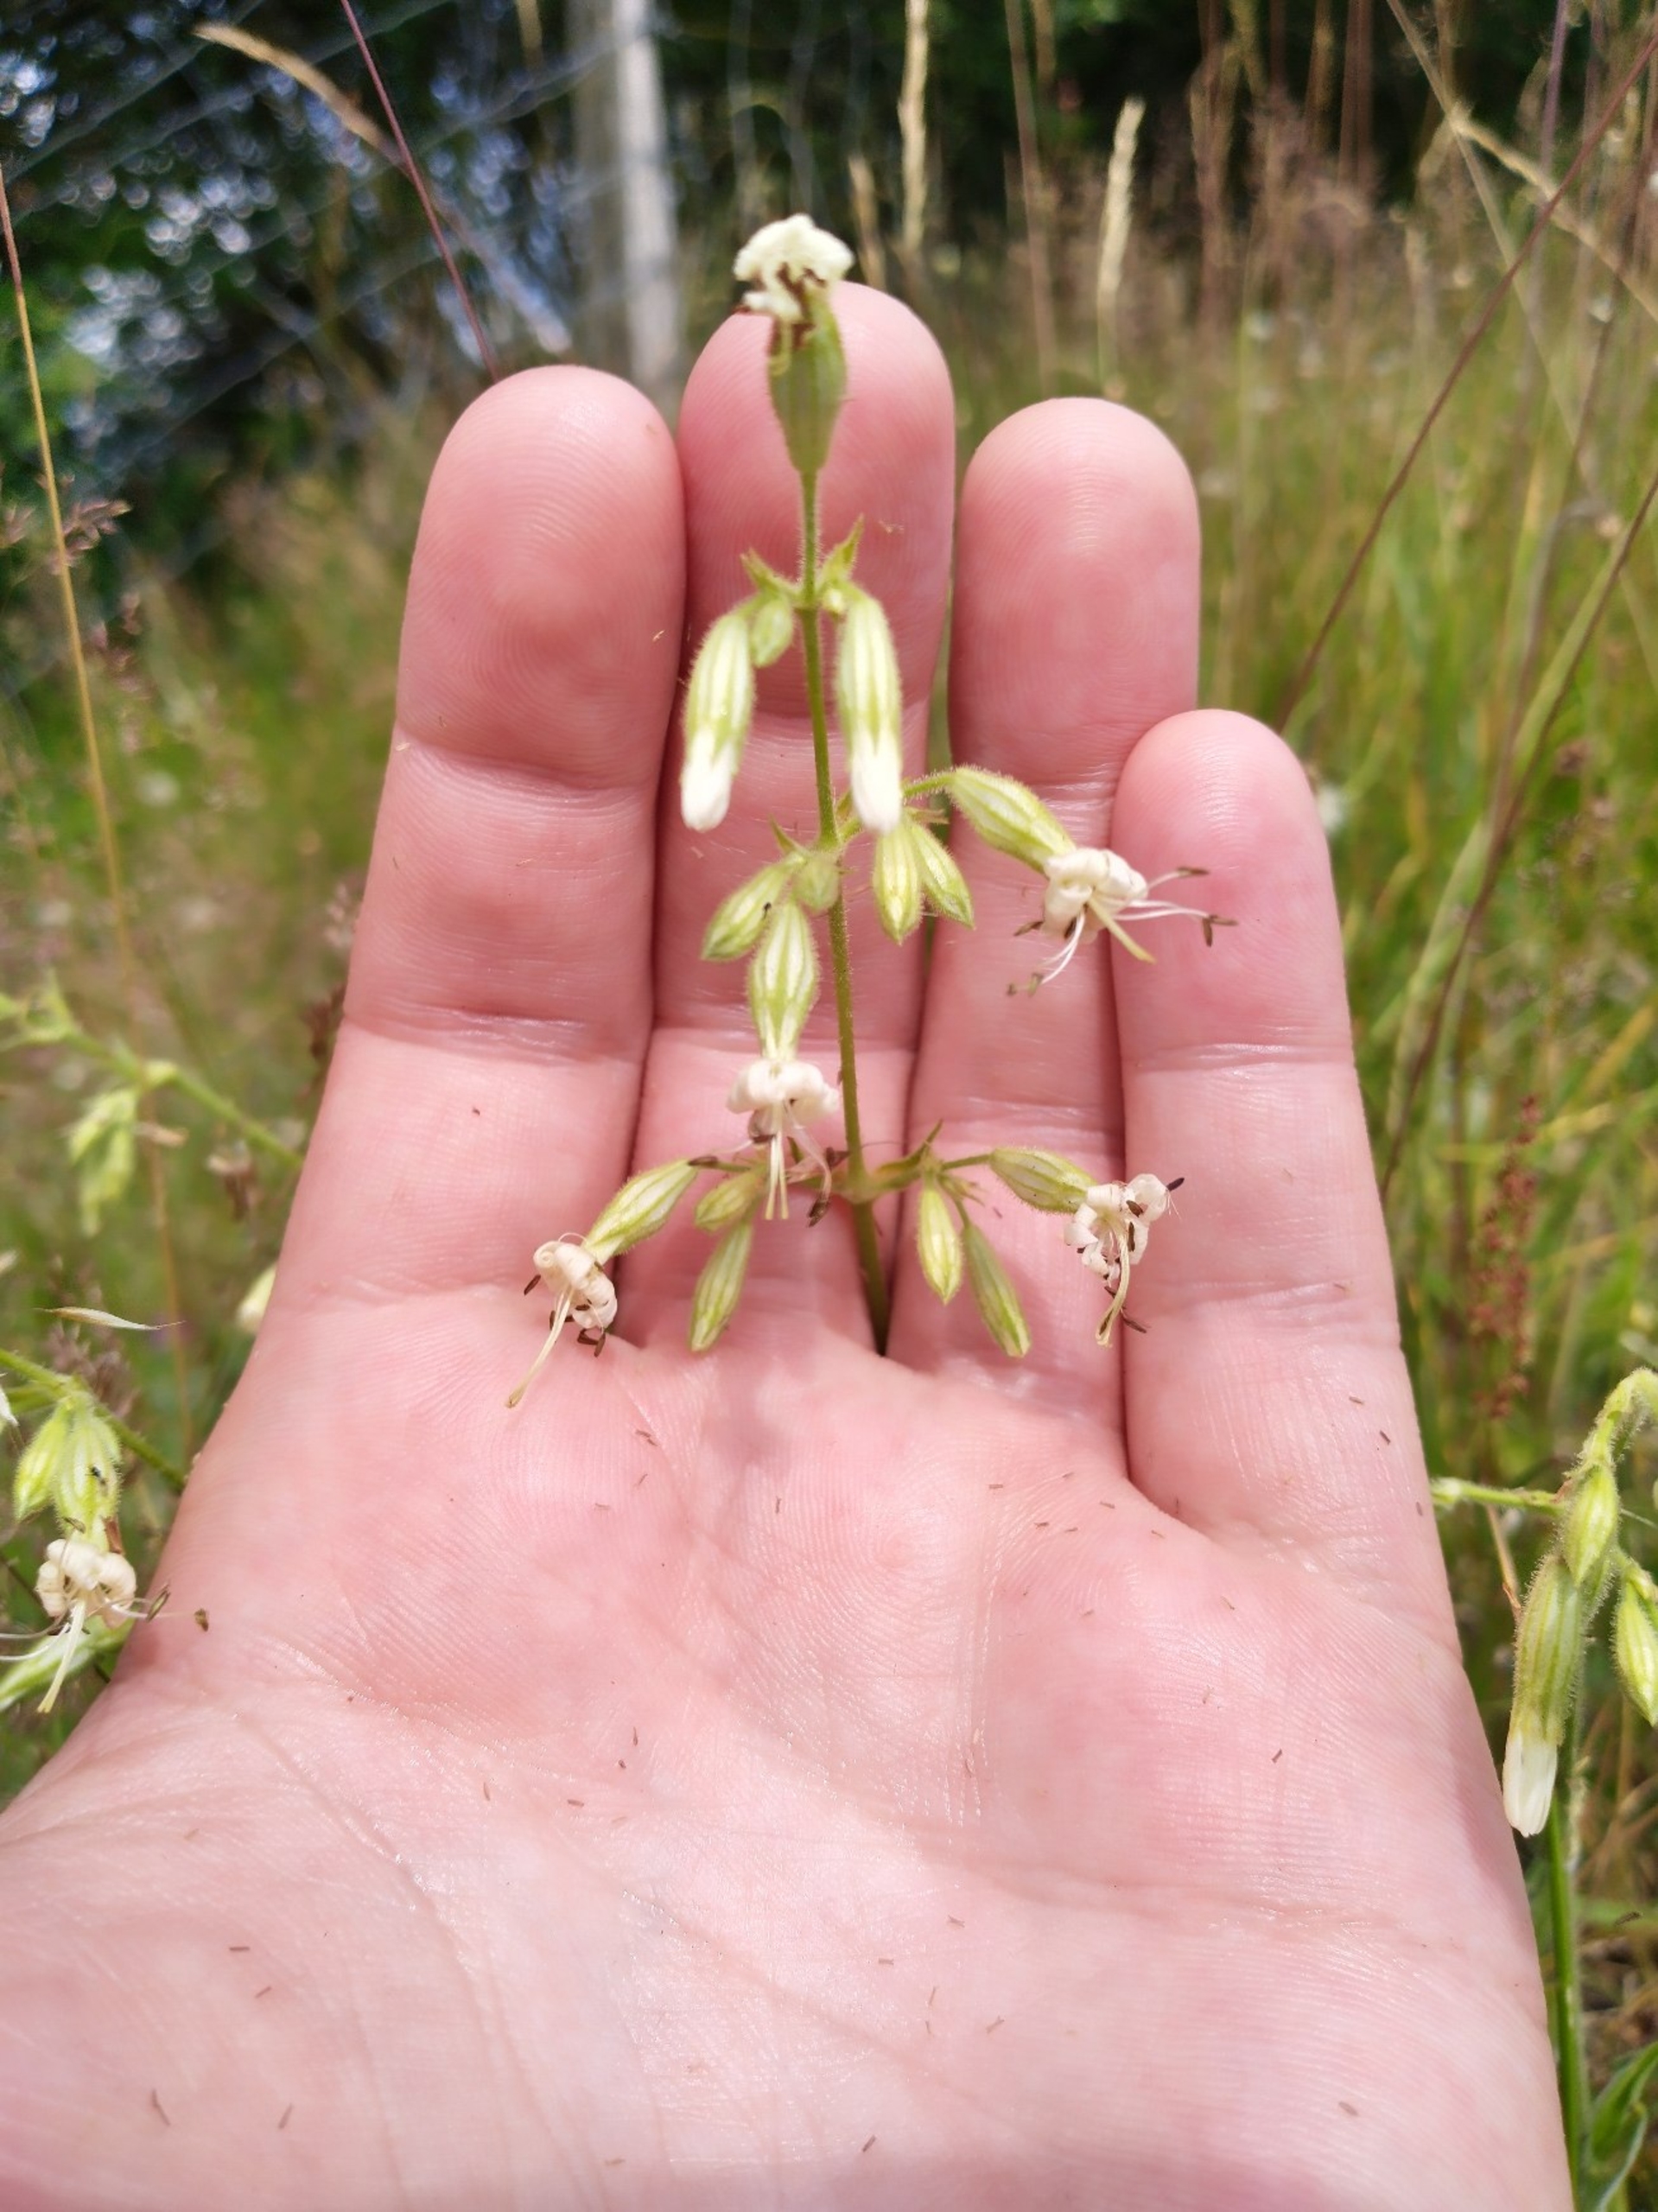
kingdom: Plantae
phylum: Tracheophyta
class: Magnoliopsida
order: Caryophyllales
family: Caryophyllaceae
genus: Silene
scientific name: Silene nutans
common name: Nikkende limurt
